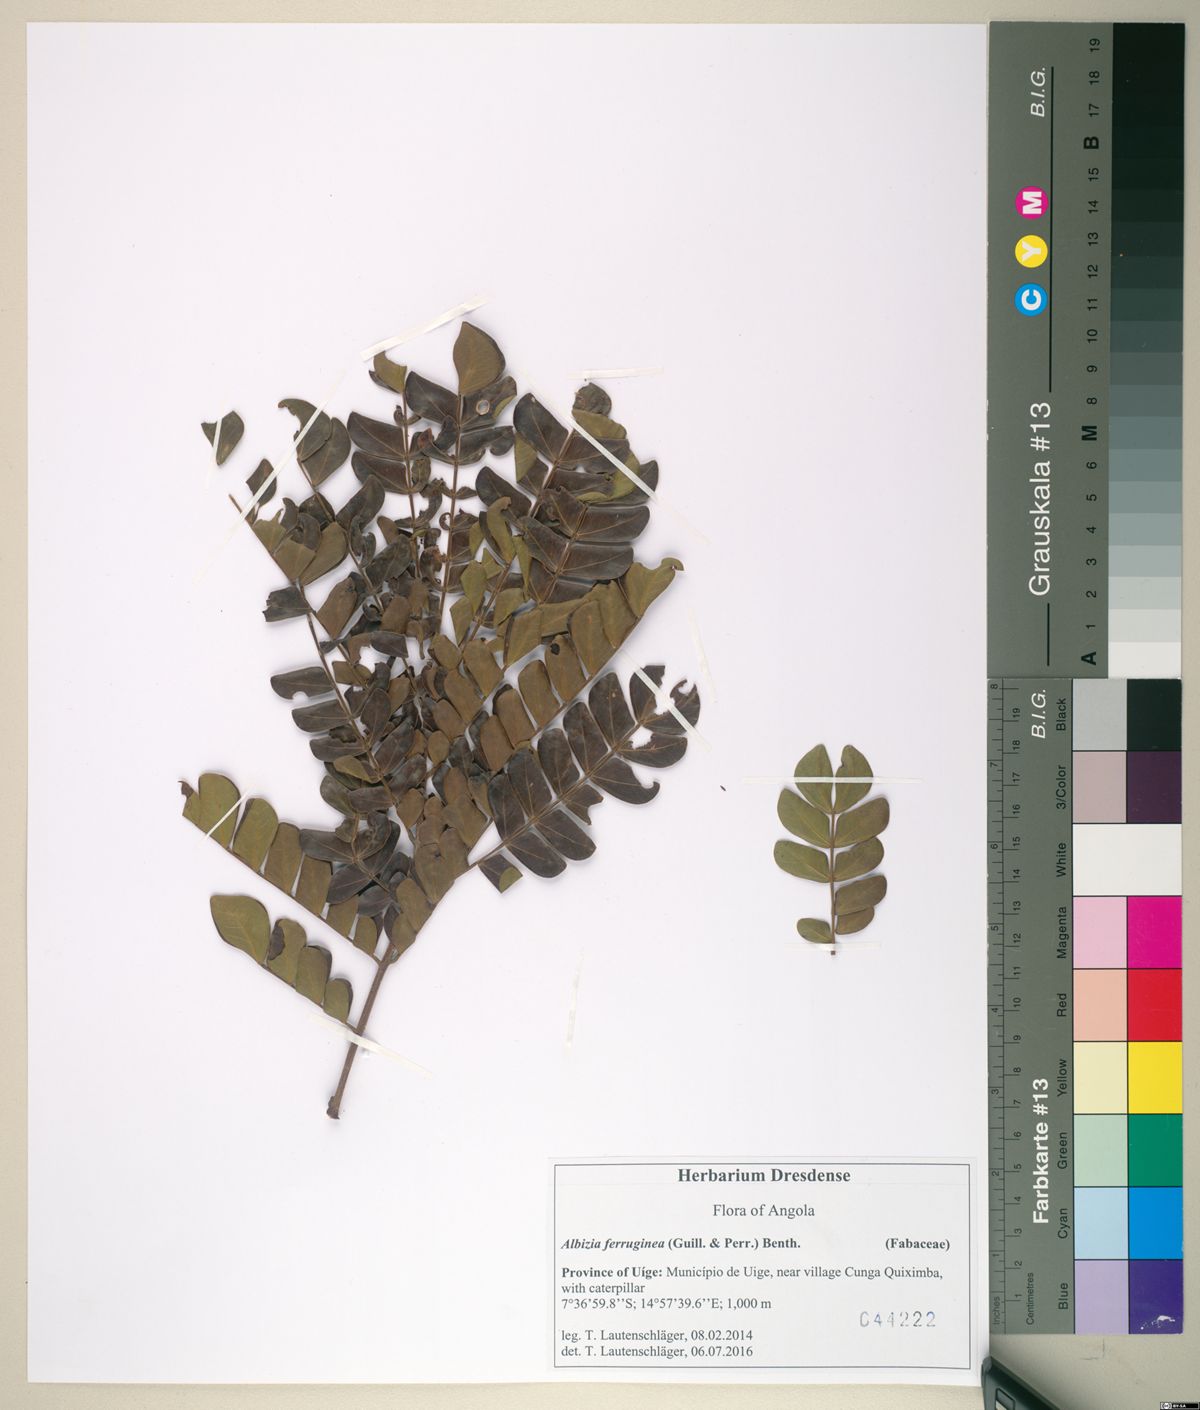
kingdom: Plantae
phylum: Tracheophyta
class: Magnoliopsida
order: Fabales
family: Fabaceae
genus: Albizia
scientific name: Albizia gummifera
